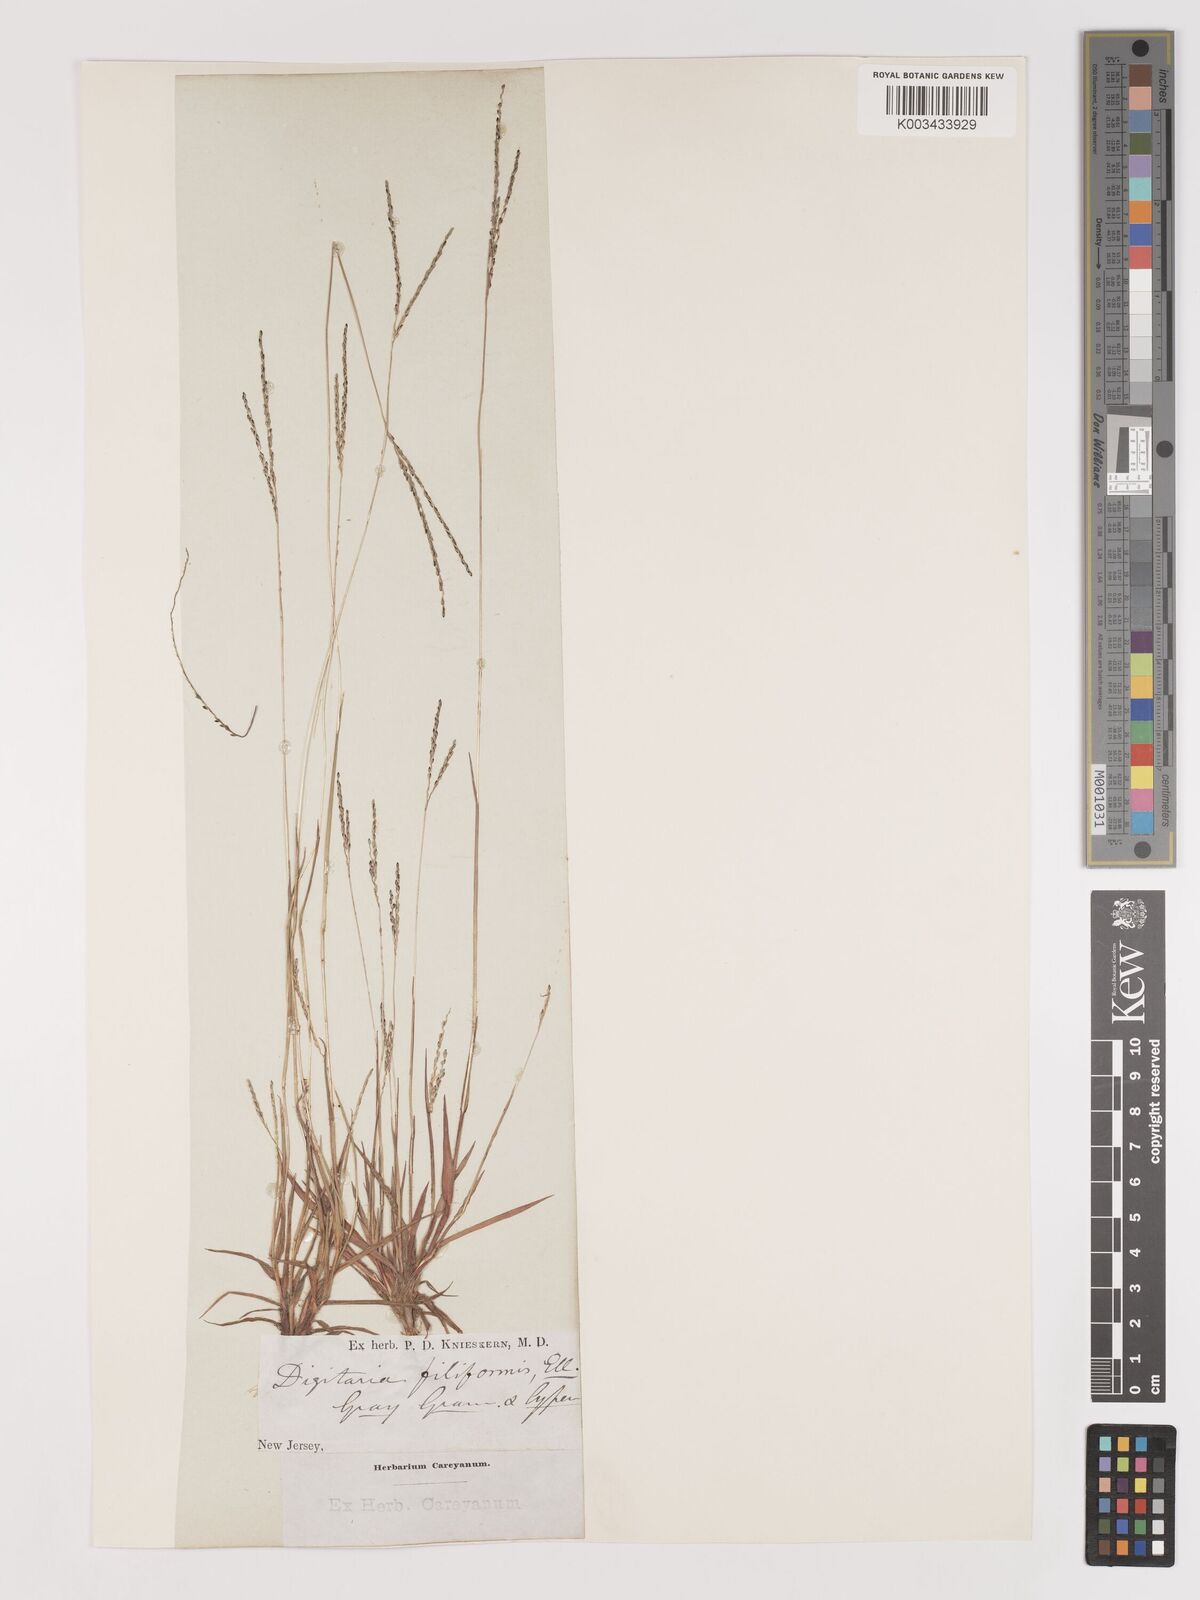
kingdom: Plantae
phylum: Tracheophyta
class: Liliopsida
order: Poales
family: Poaceae
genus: Digitaria
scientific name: Digitaria filiformis
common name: Slender crabgrass
